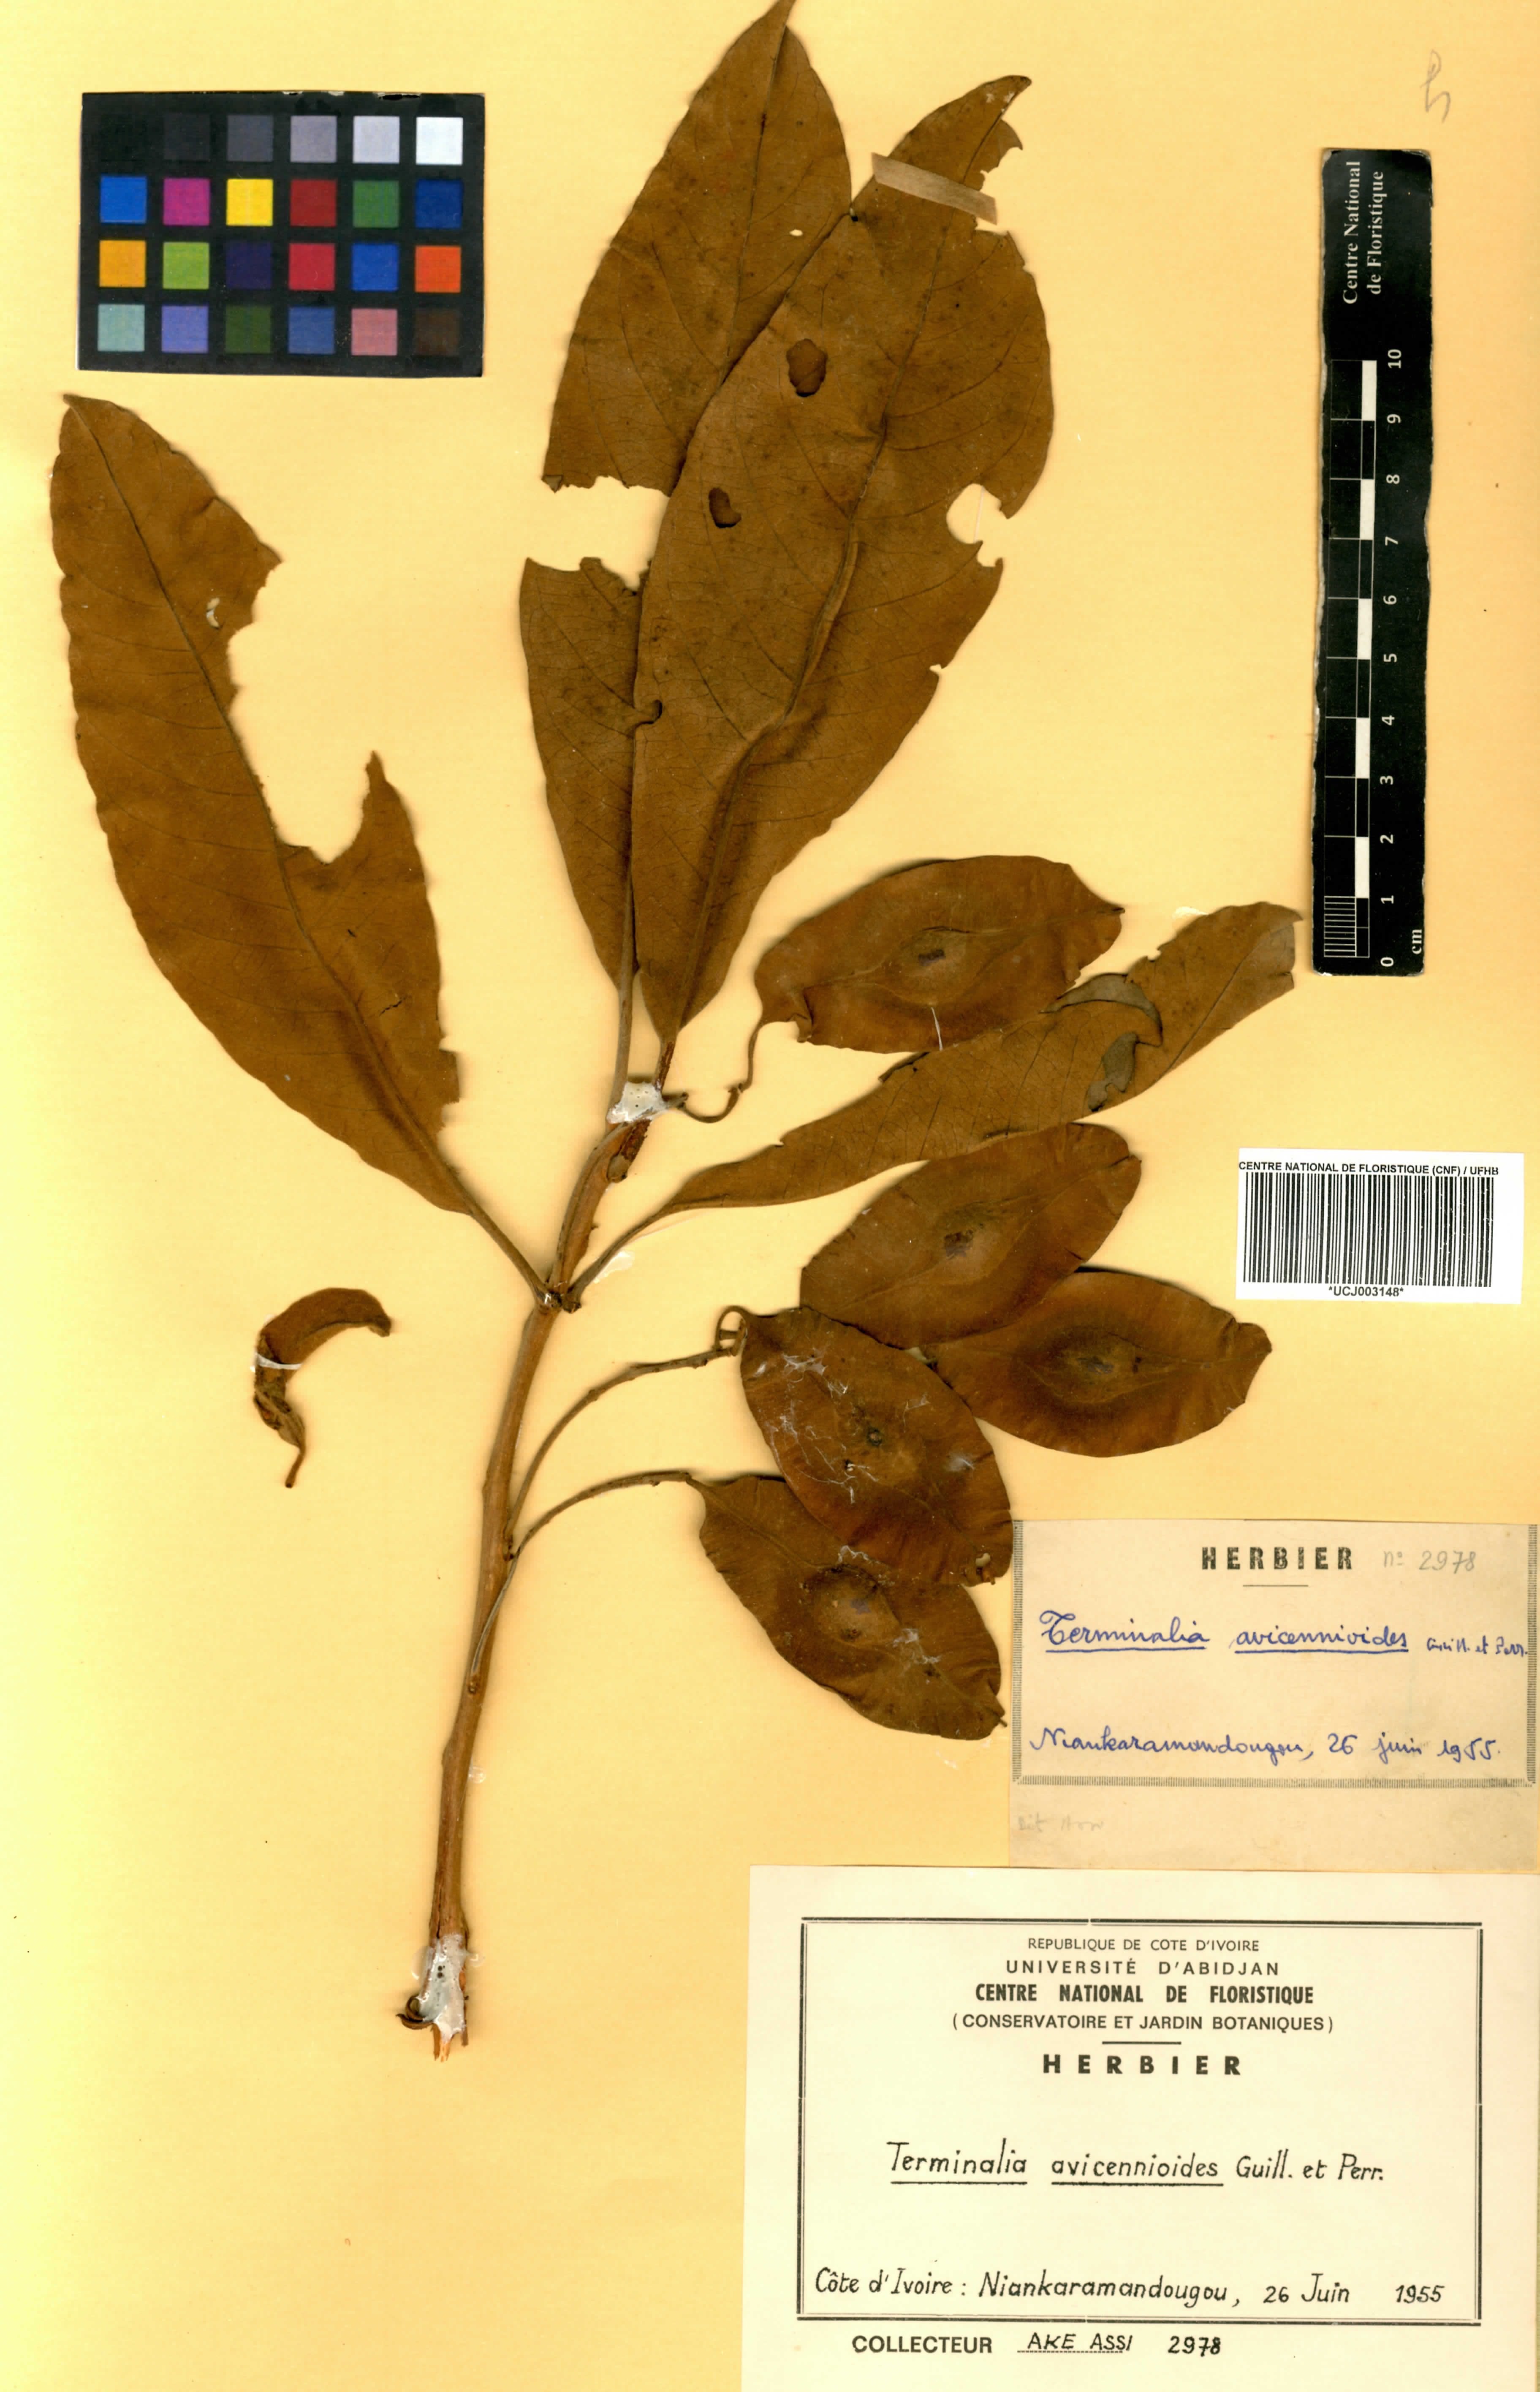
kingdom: Plantae
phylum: Tracheophyta
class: Magnoliopsida
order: Myrtales
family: Combretaceae
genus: Terminalia
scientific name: Terminalia avicennioides
